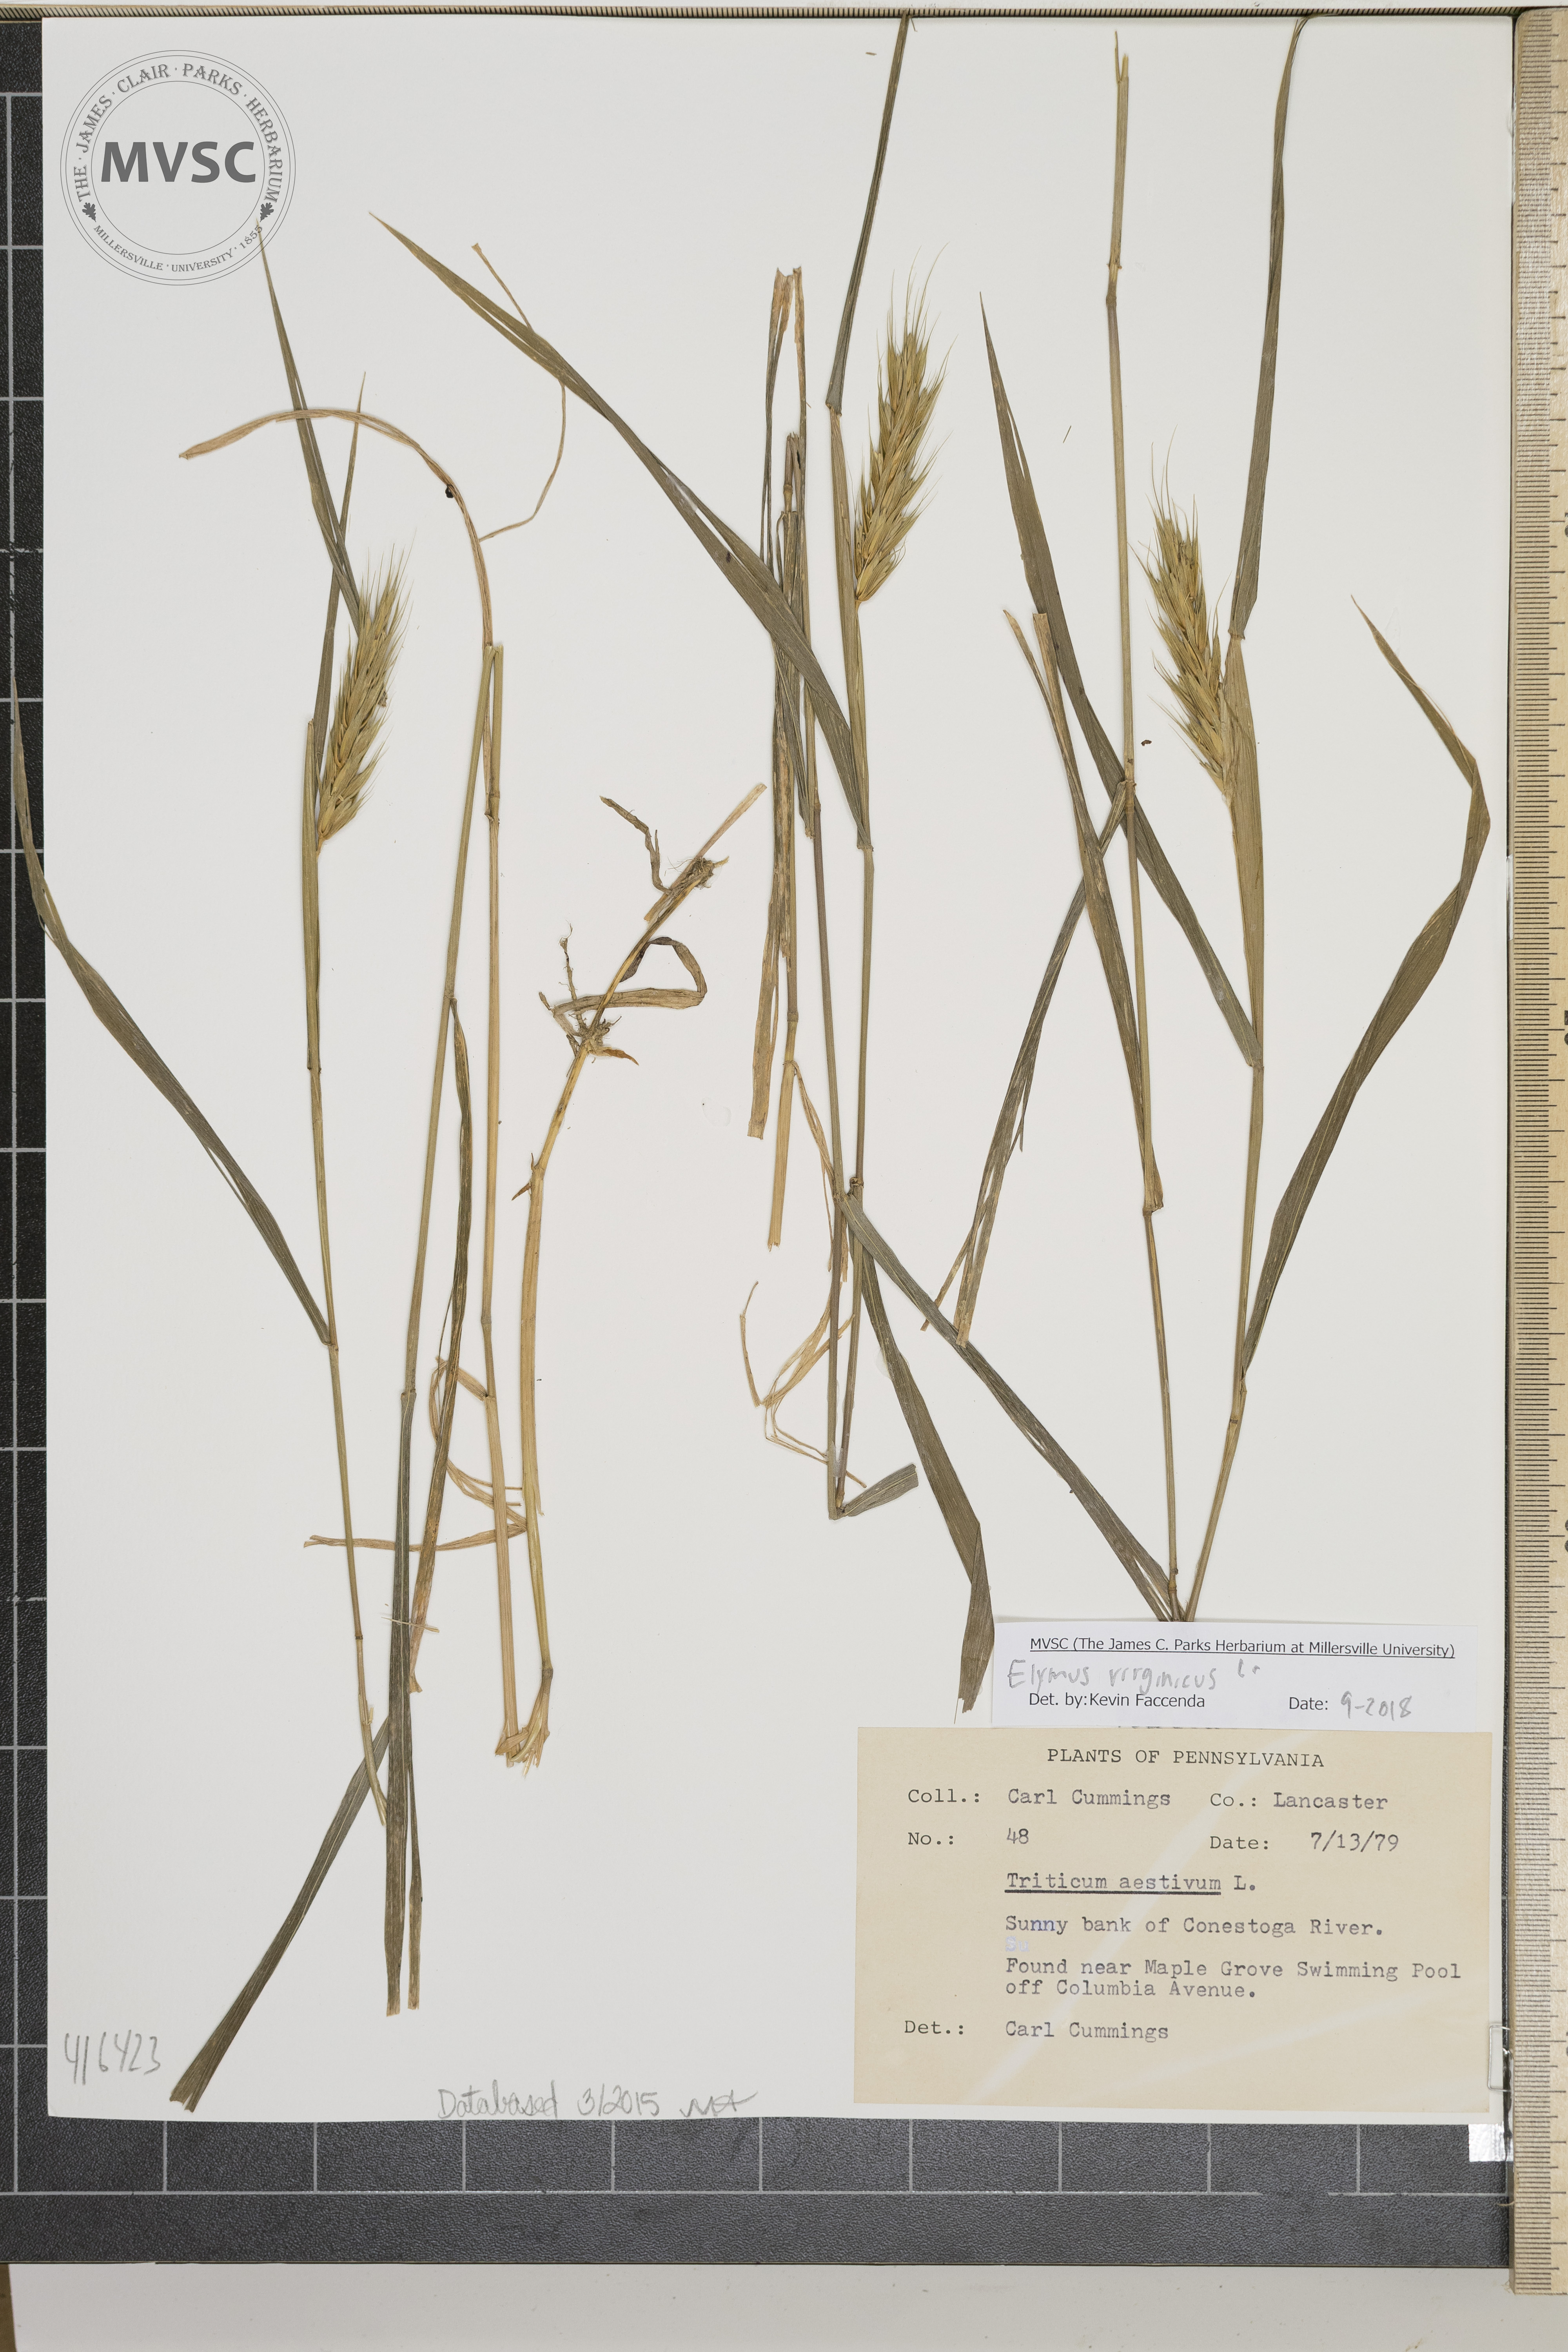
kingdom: Plantae
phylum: Tracheophyta
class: Liliopsida
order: Poales
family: Poaceae
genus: Elymus
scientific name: Elymus virginicus
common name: Common eastern wildrye
